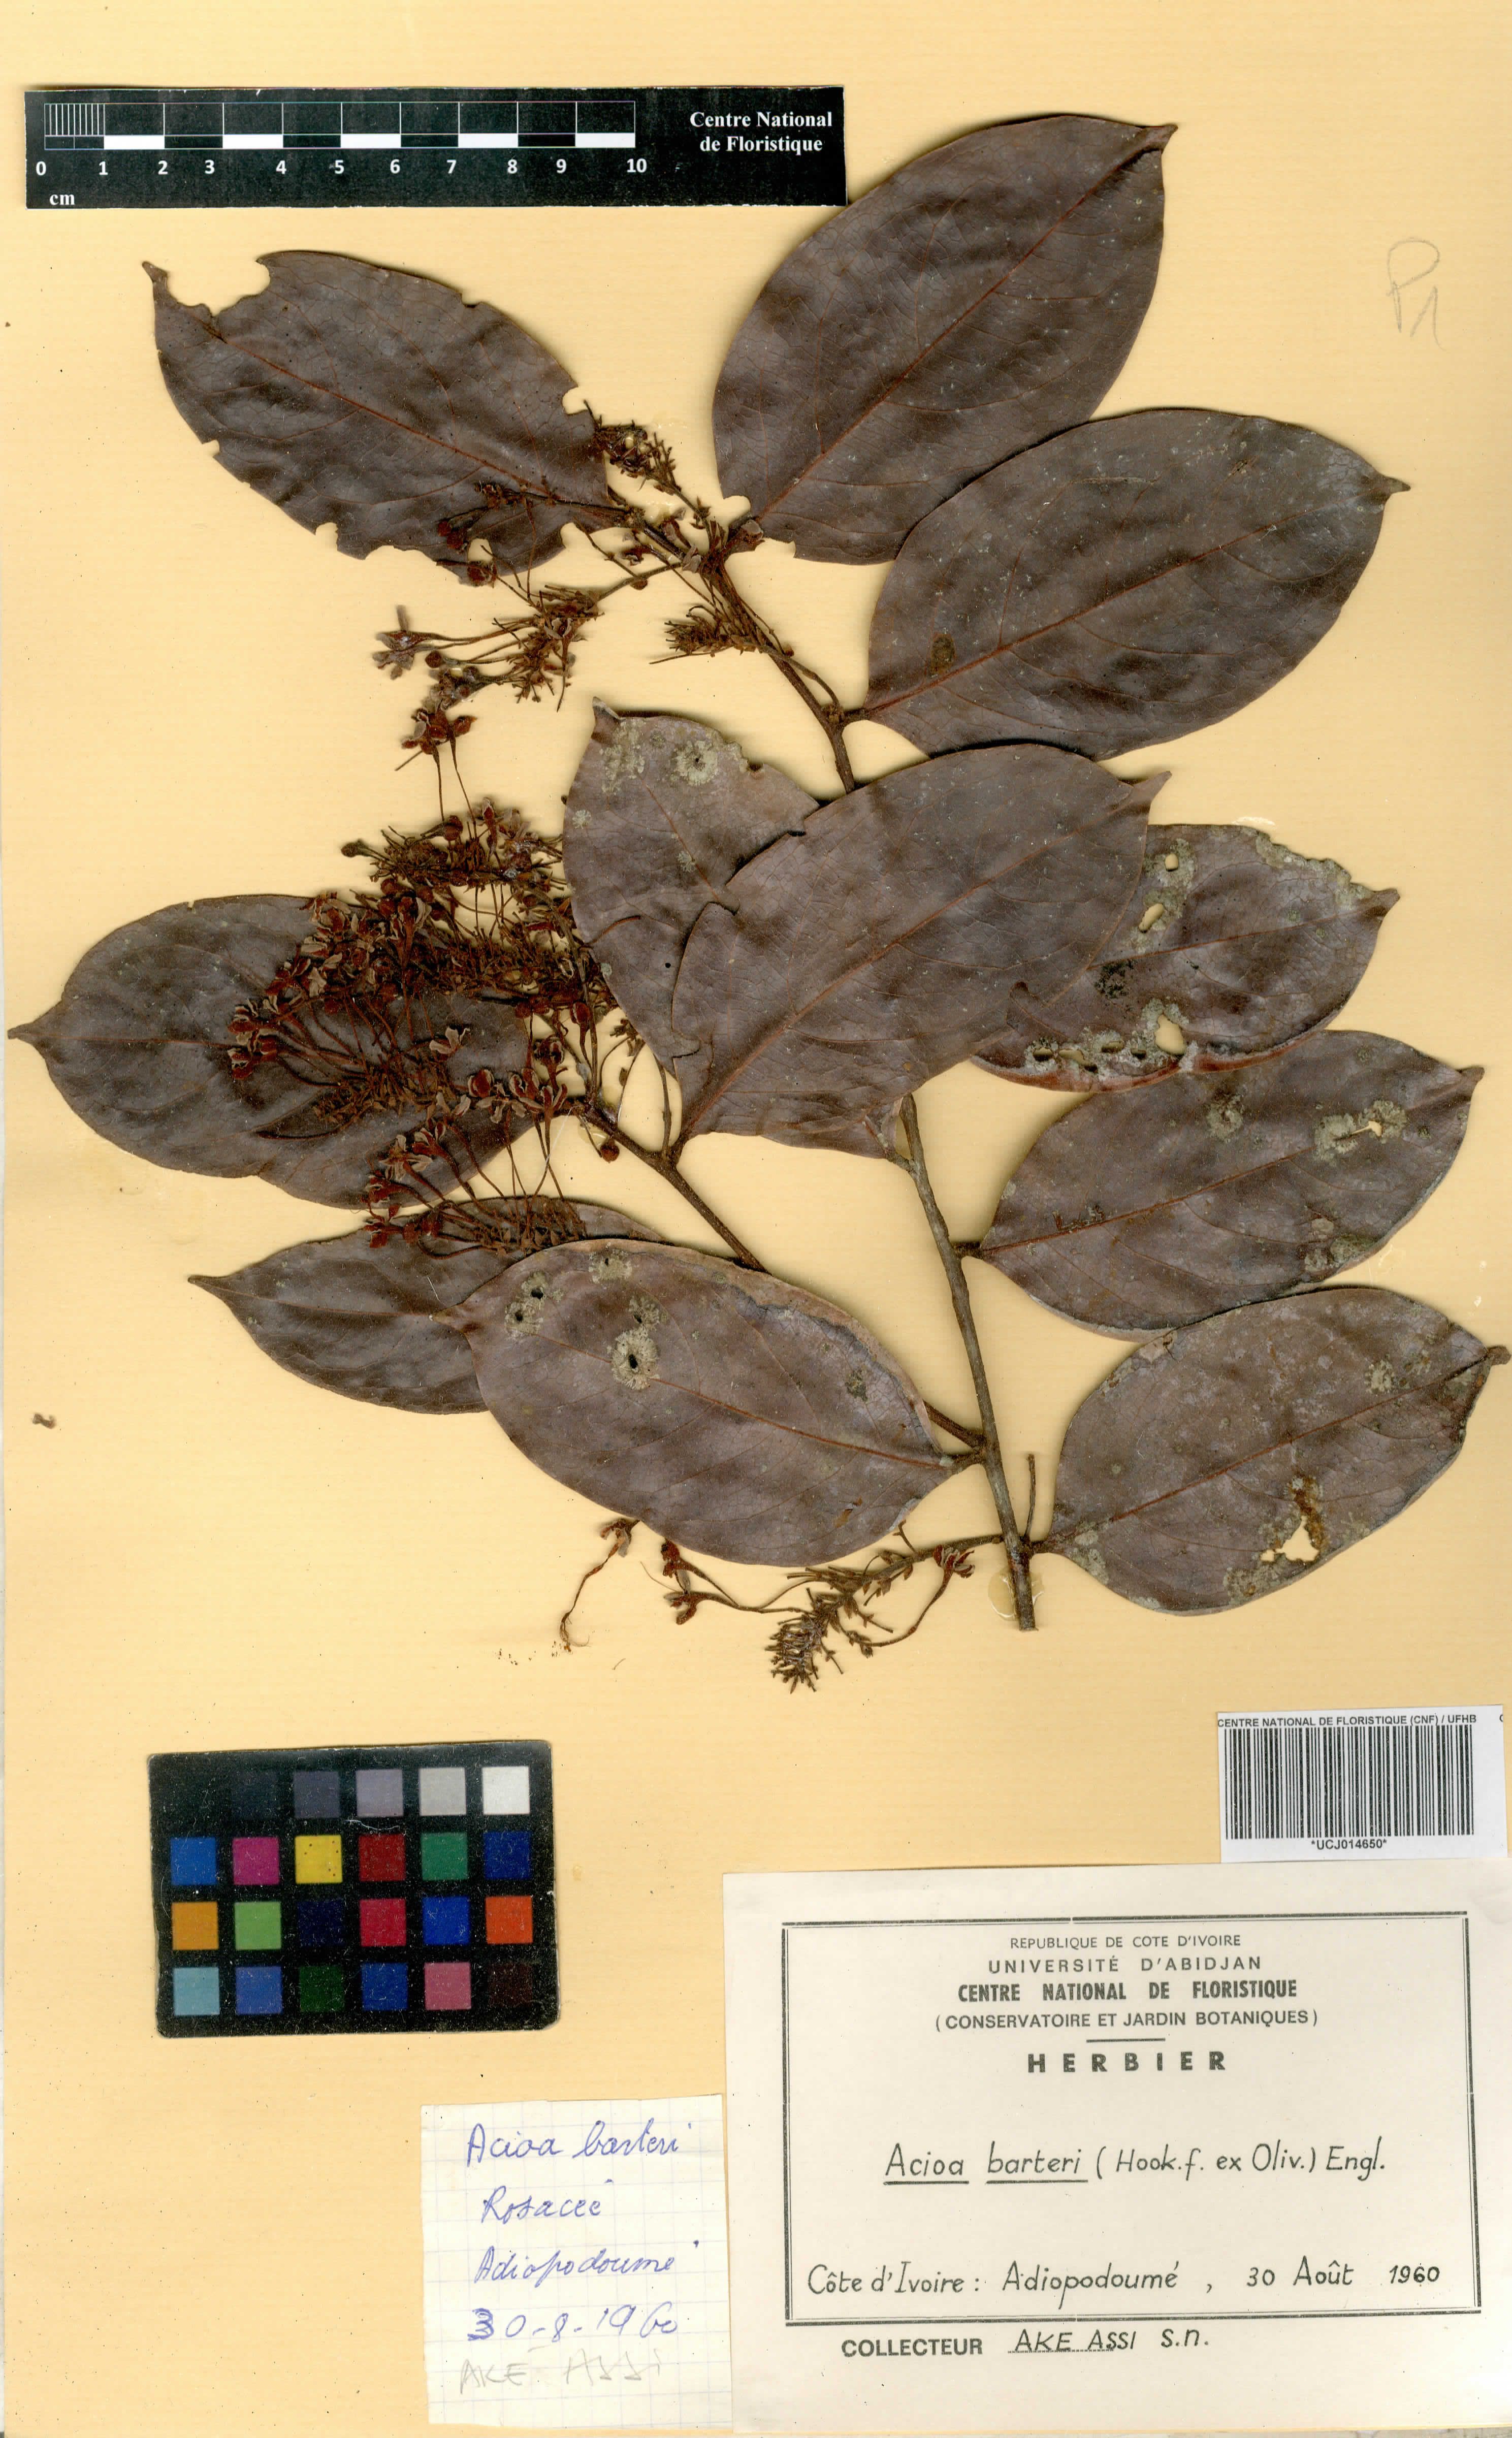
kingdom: Plantae
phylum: Tracheophyta
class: Magnoliopsida
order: Malpighiales
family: Chrysobalanaceae
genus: Dactyladenia
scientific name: Dactyladenia barteri
